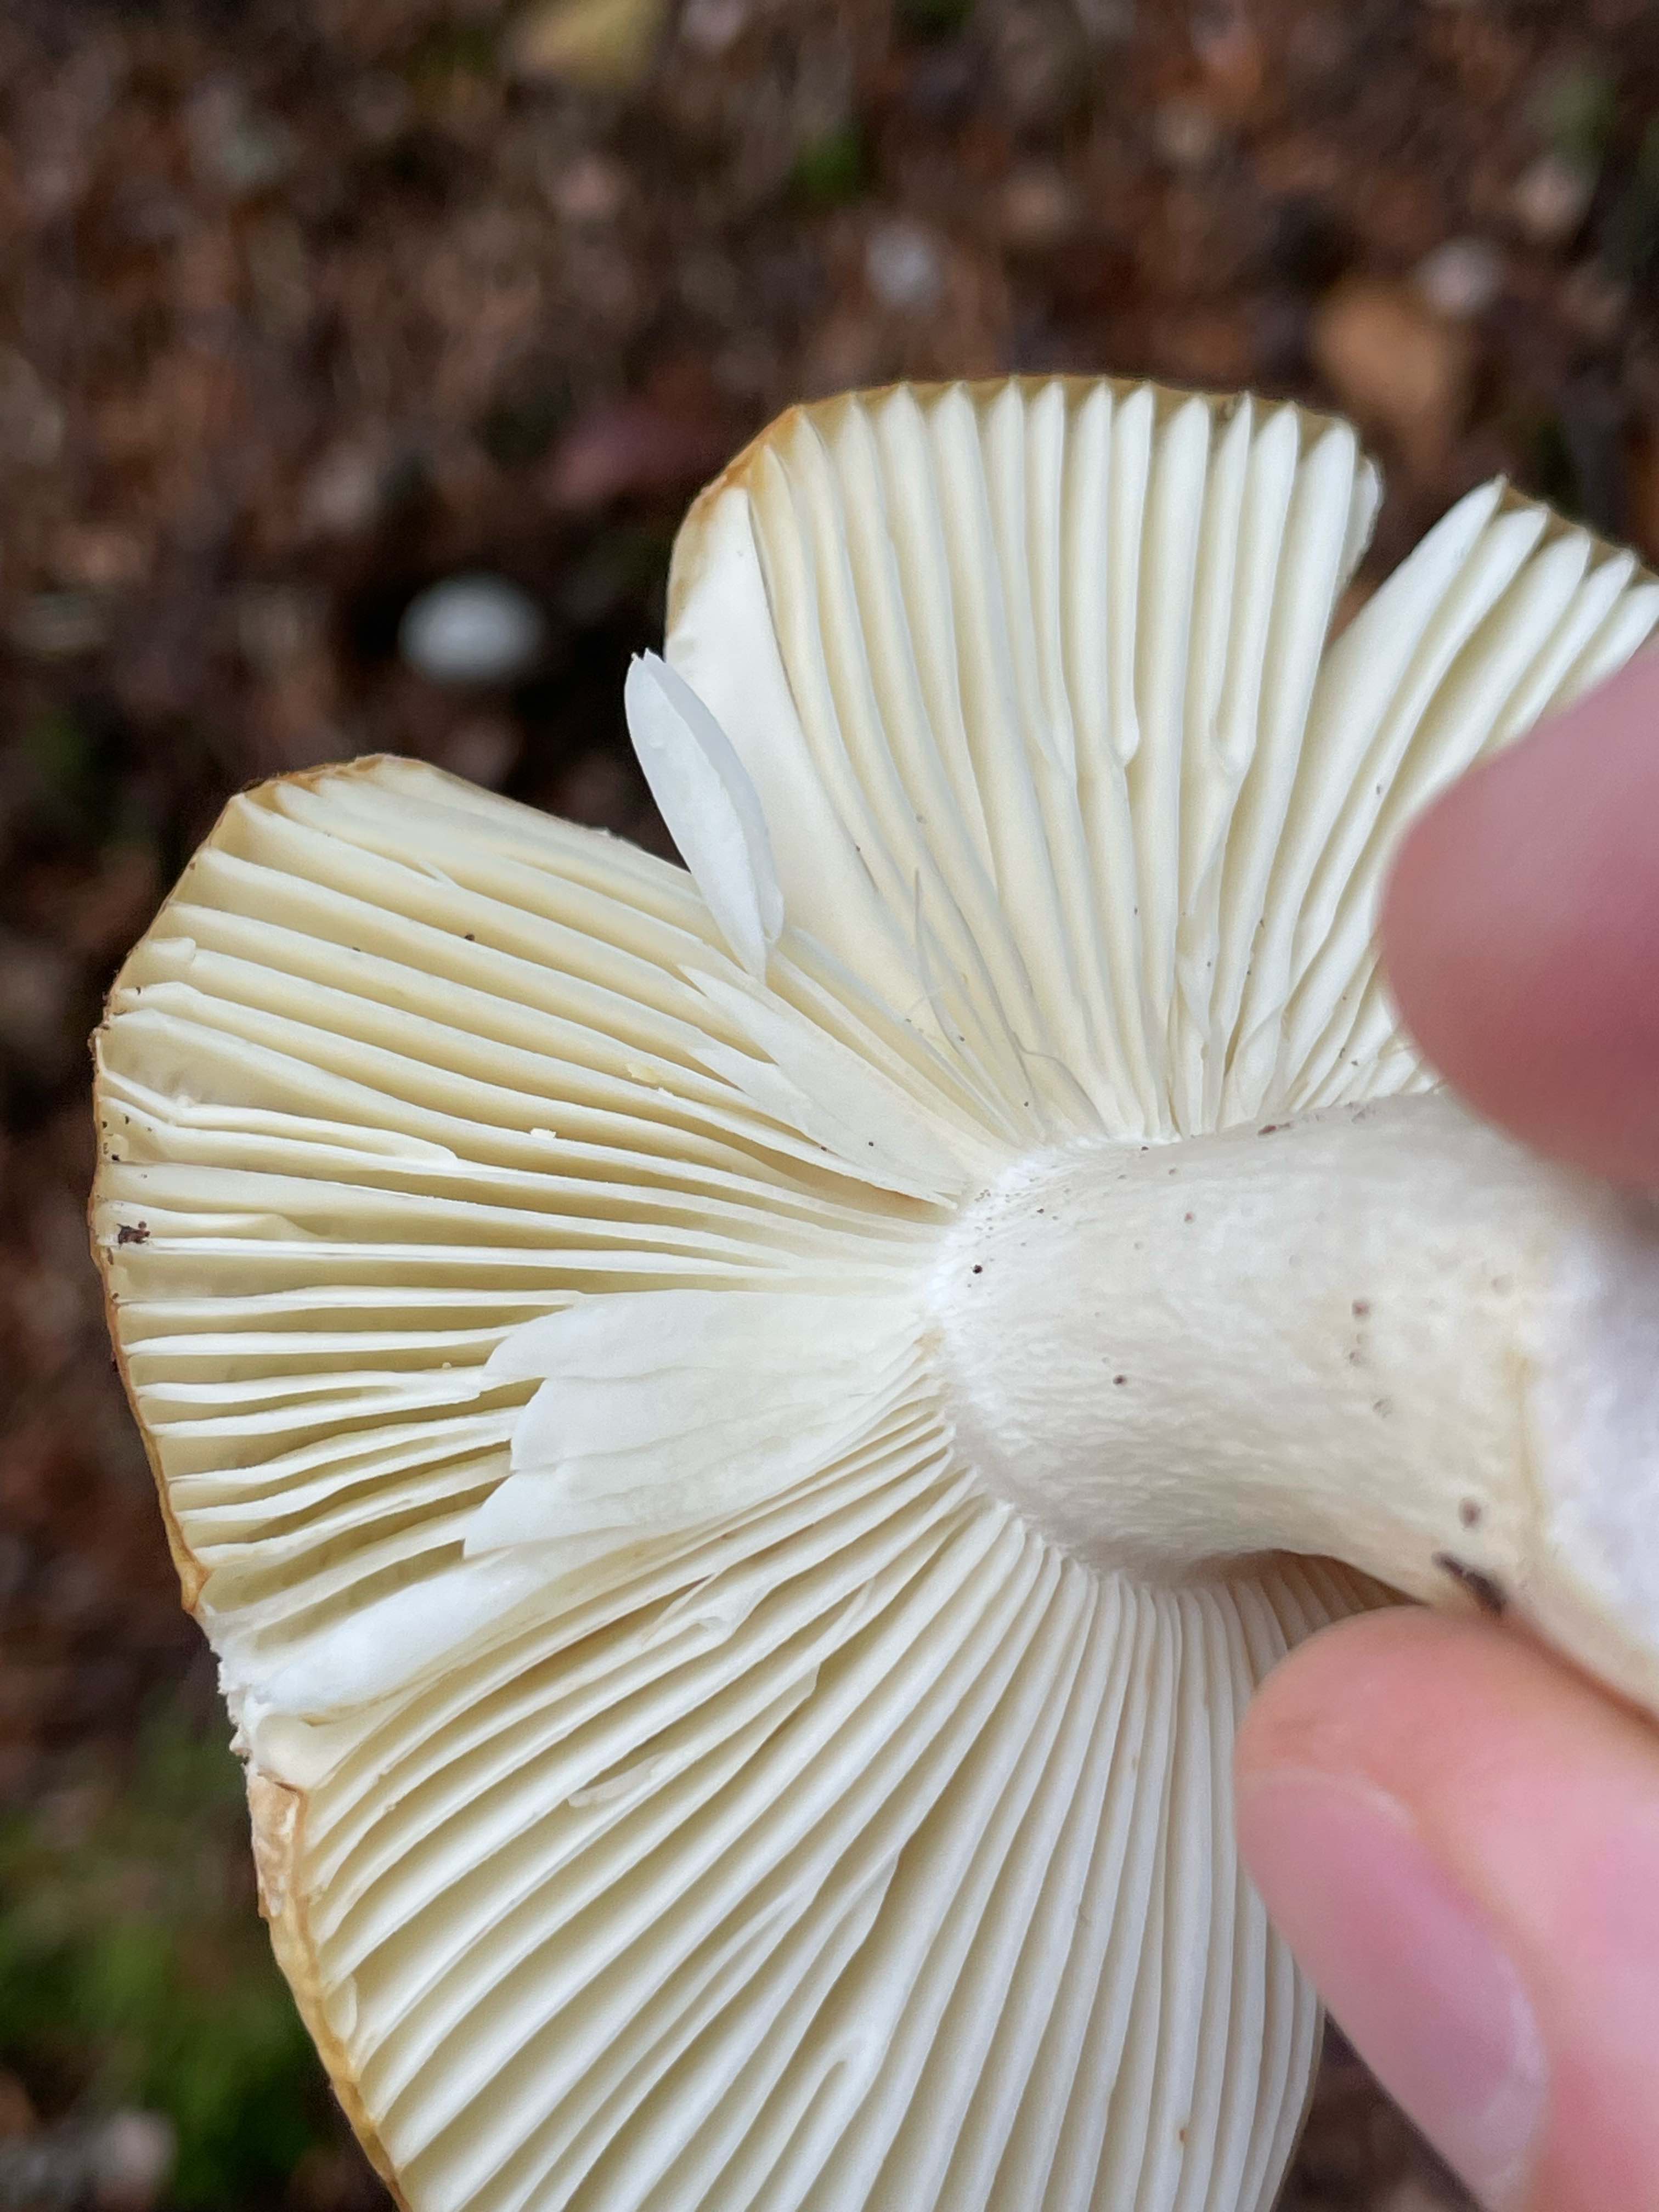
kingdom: Fungi
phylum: Basidiomycota
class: Agaricomycetes
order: Russulales
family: Russulaceae
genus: Russula
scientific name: Russula ochroleuca
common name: okkergul skørhat
